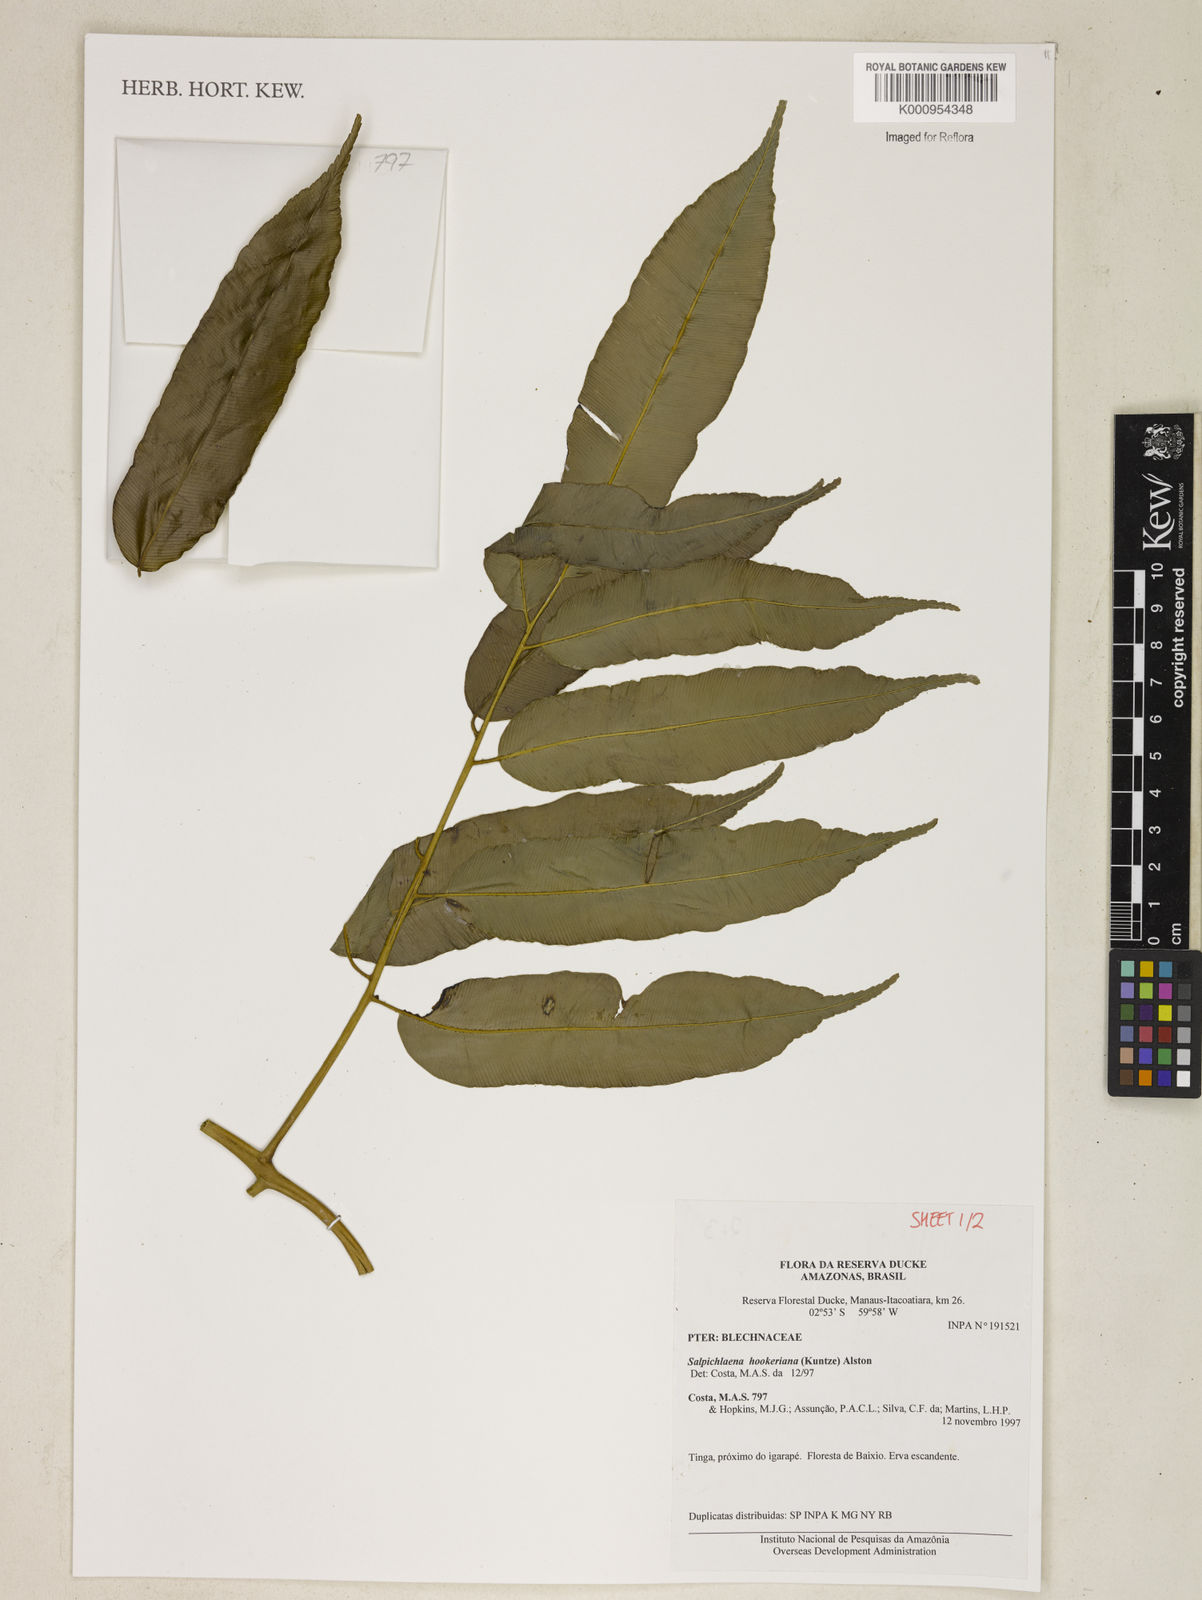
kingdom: Plantae
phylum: Tracheophyta
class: Polypodiopsida
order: Polypodiales
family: Blechnaceae
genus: Blechnum
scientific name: Blechnum
